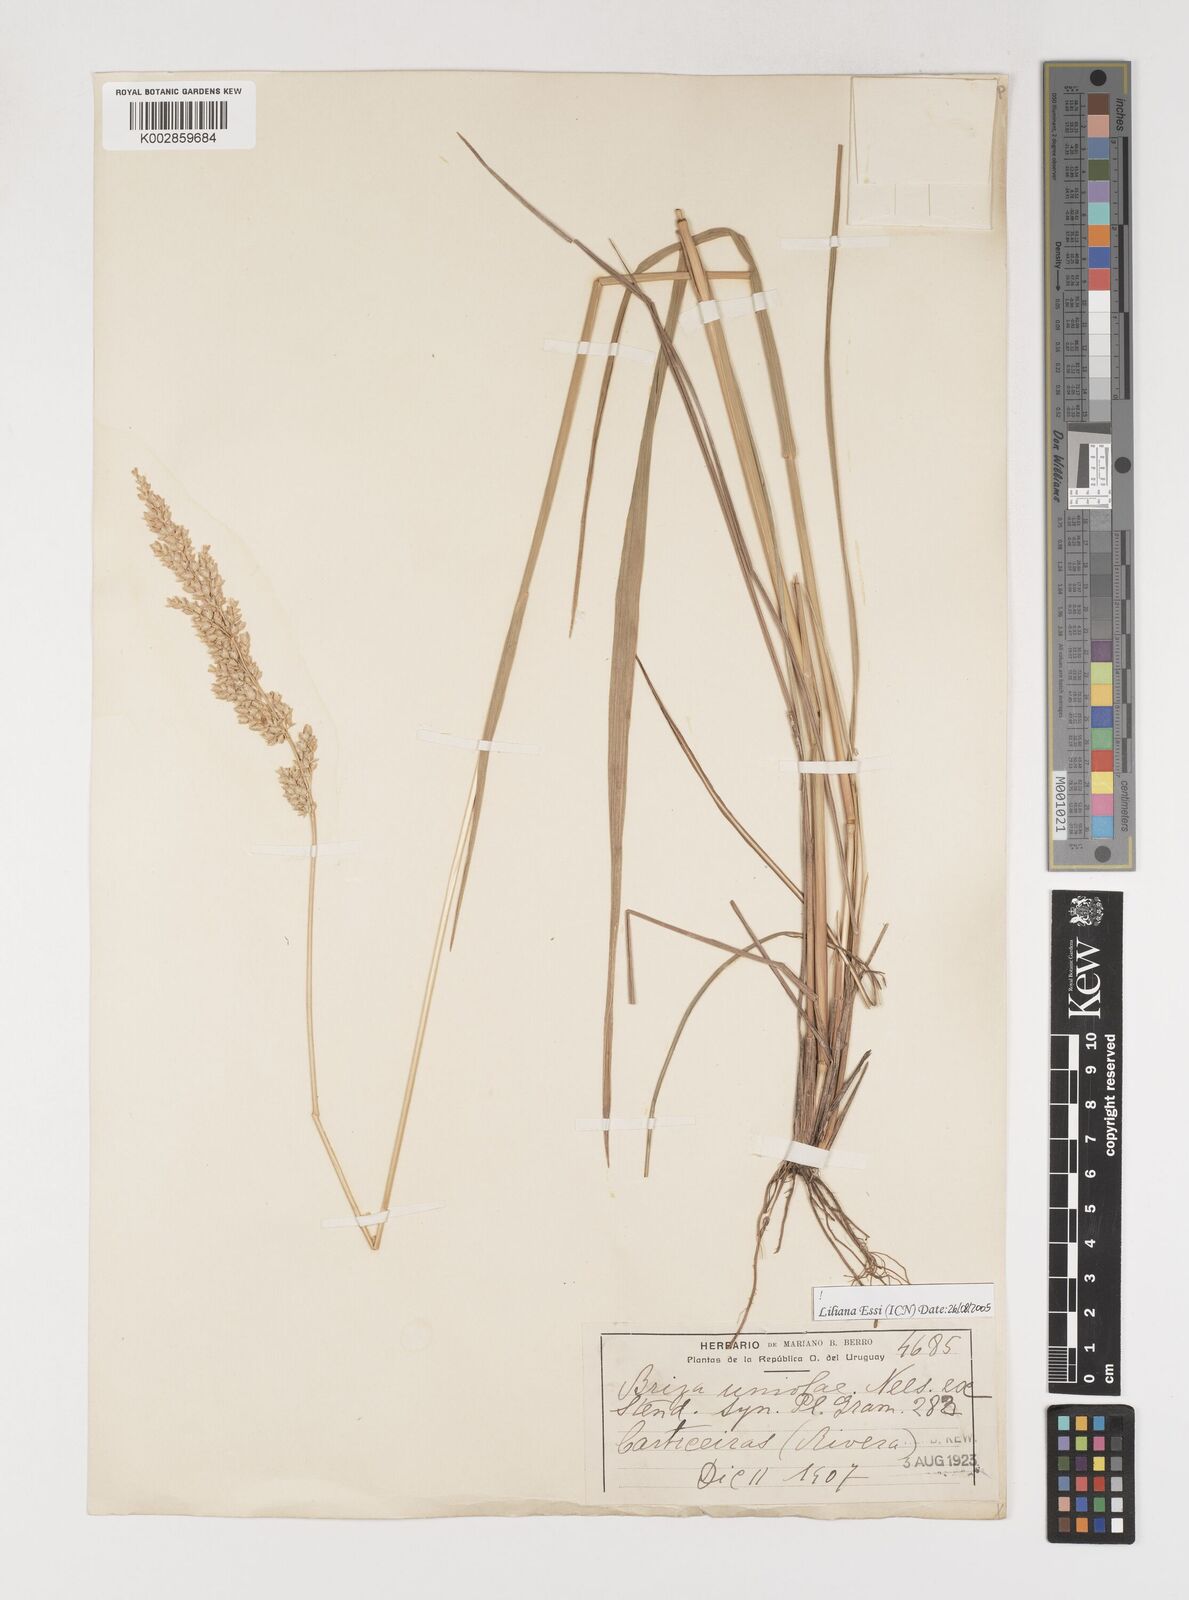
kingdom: Plantae
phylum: Tracheophyta
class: Liliopsida
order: Poales
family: Poaceae
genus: Poidium
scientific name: Poidium uniolae
